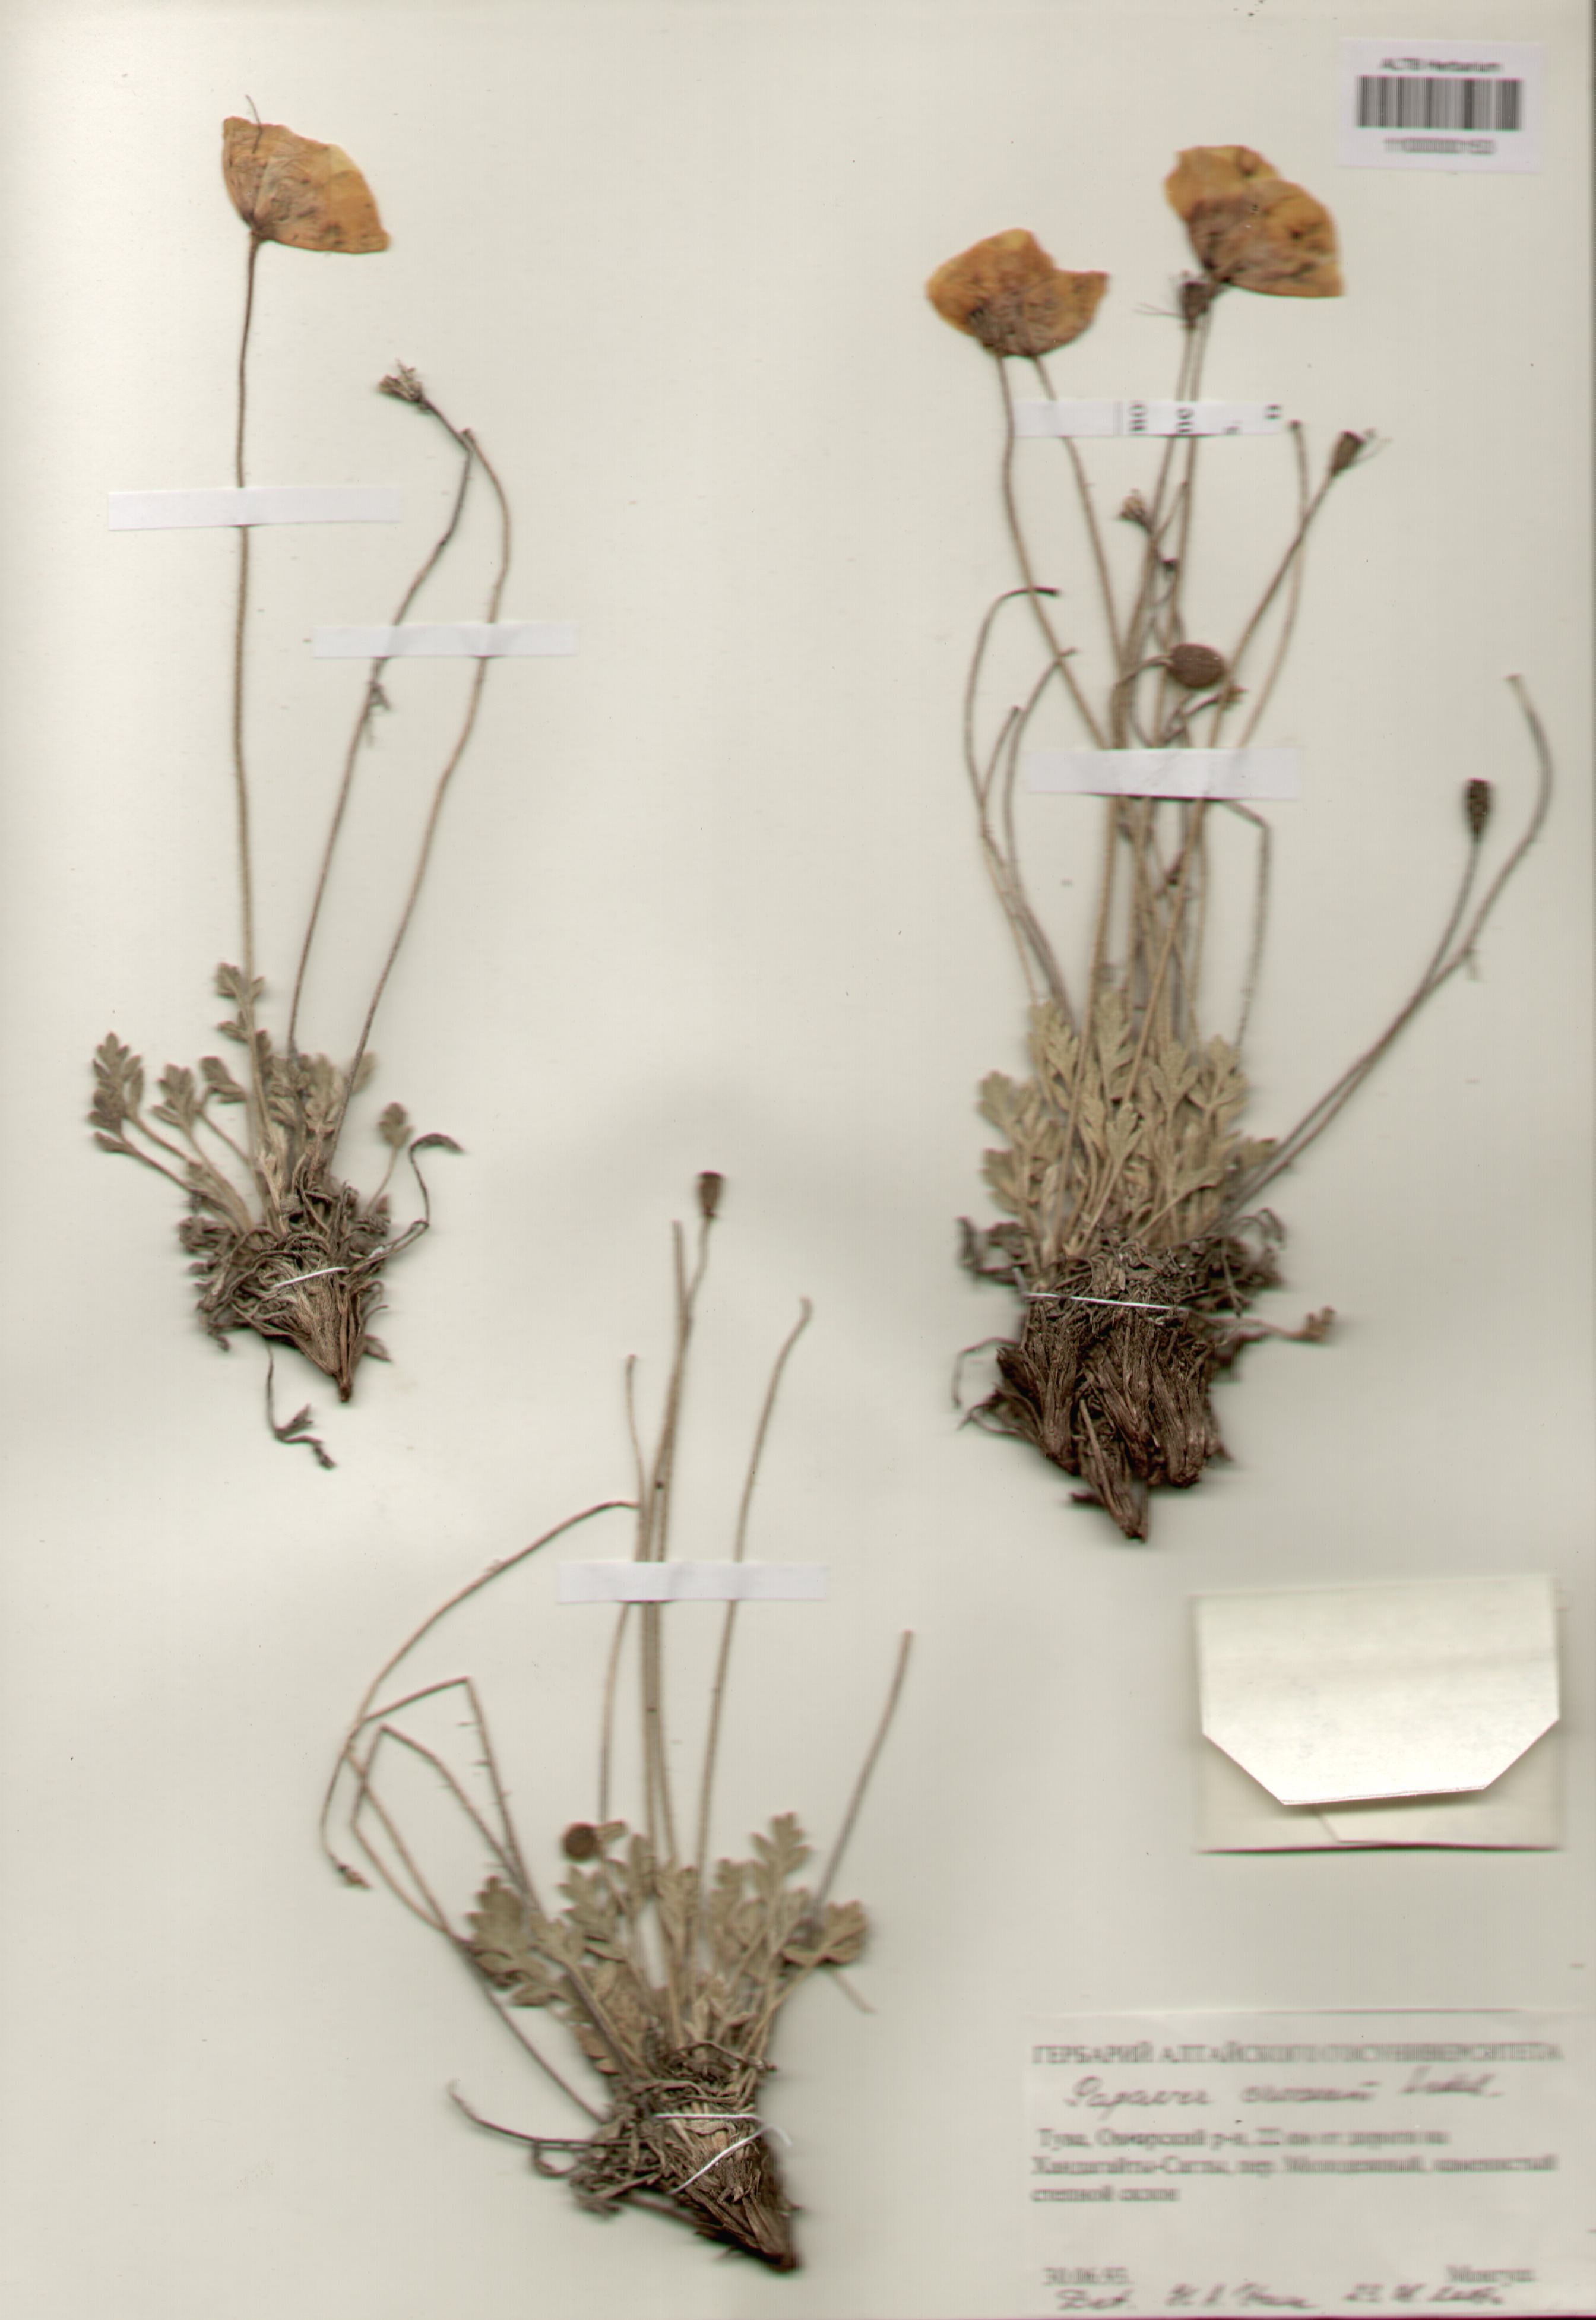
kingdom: Plantae
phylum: Tracheophyta
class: Magnoliopsida
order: Ranunculales
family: Papaveraceae
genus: Papaver
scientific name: Papaver canescens
